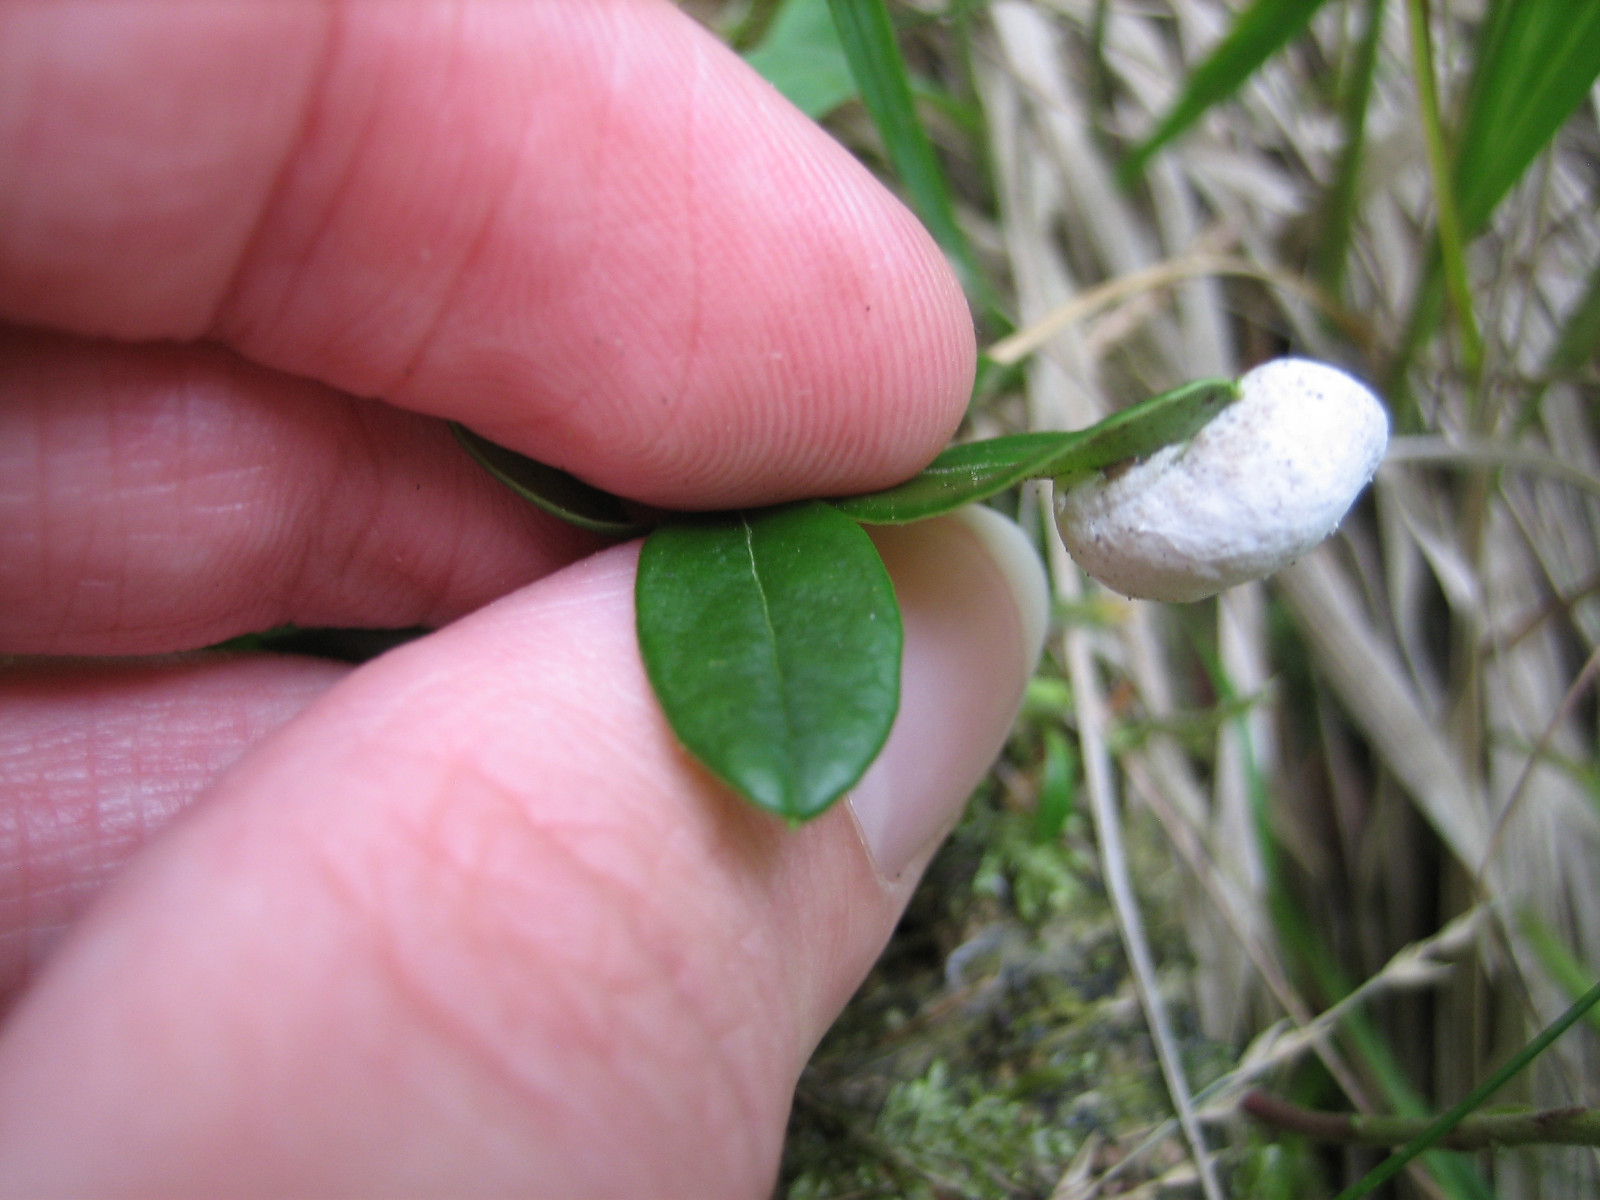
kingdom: Fungi
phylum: Basidiomycota
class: Exobasidiomycetes
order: Exobasidiales
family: Exobasidiaceae
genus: Exobasidium
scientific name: Exobasidium vaccinii
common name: tyttebærblad-bøllesvamp
